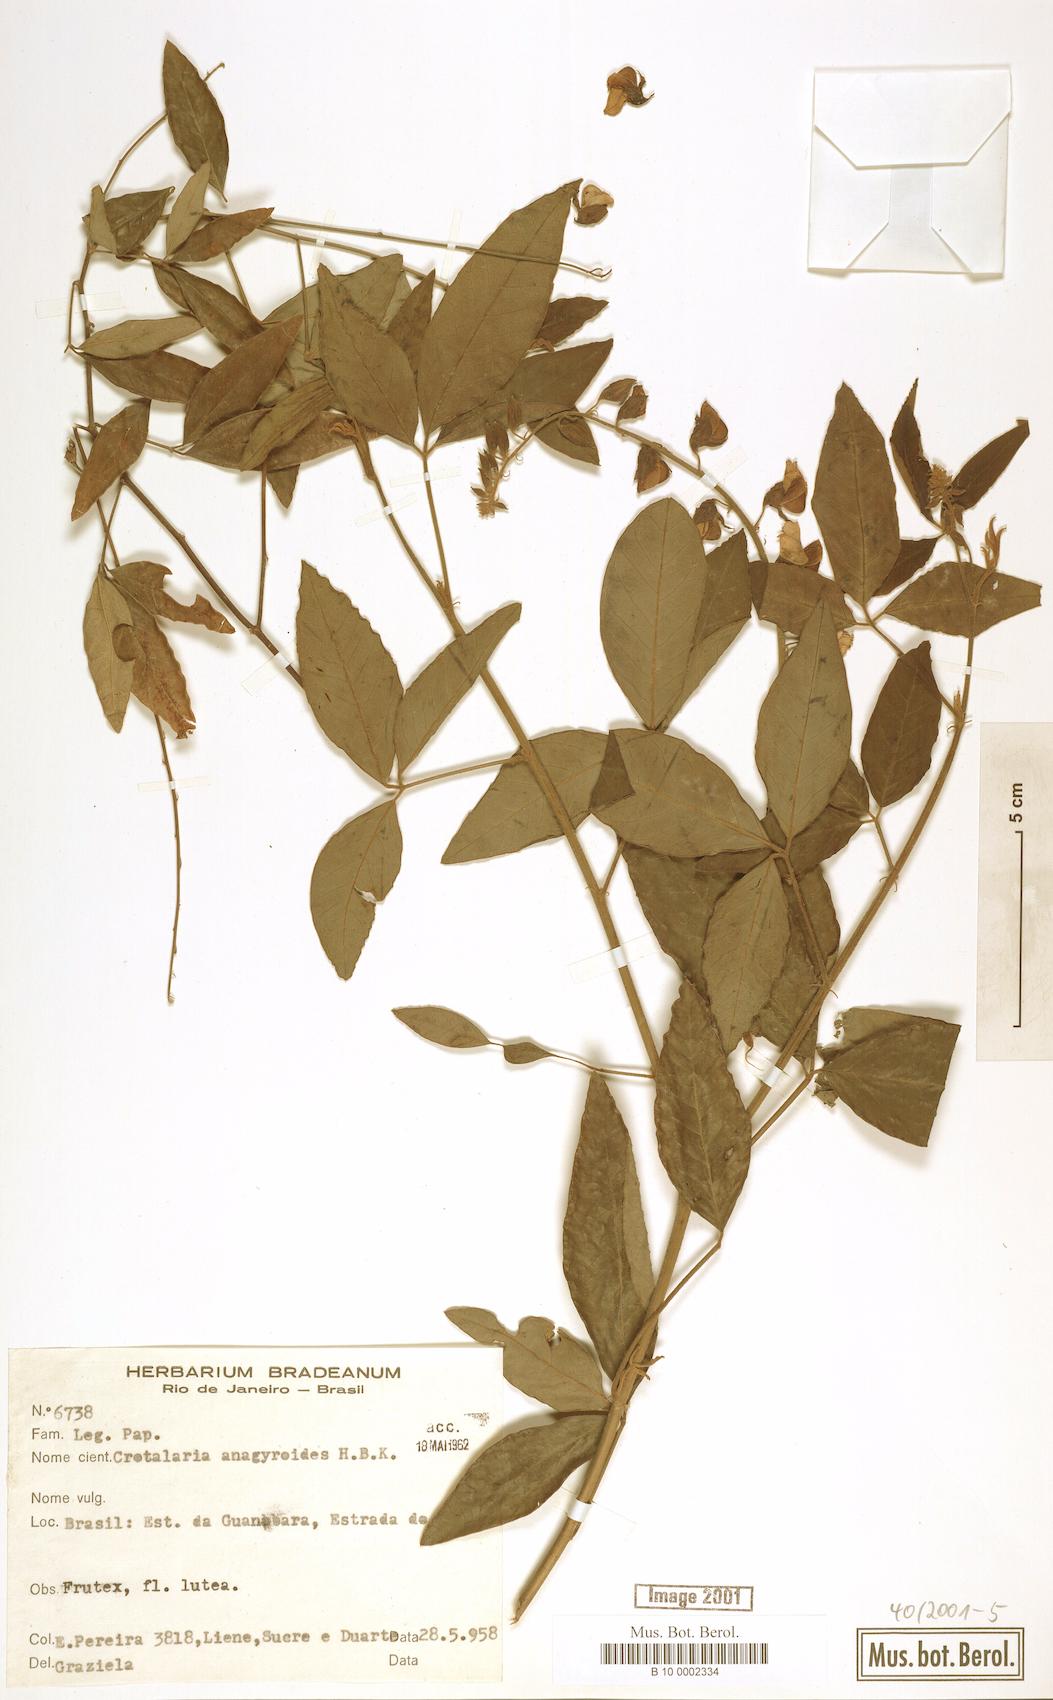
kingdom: Plantae
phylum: Tracheophyta
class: Magnoliopsida
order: Fabales
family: Fabaceae
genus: Crotalaria
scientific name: Crotalaria micans
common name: Caracas rattlebox
